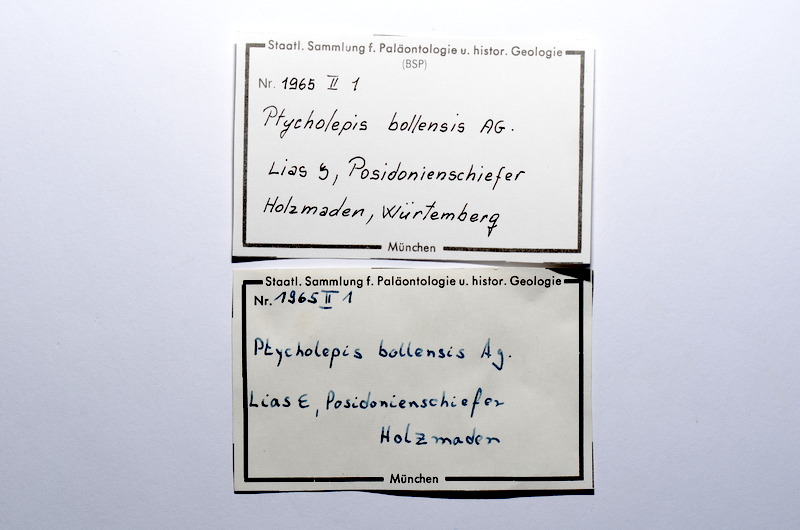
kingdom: Animalia
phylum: Chordata
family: Ptycholepididae
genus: Ptycholepis
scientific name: Ptycholepis bollensis
